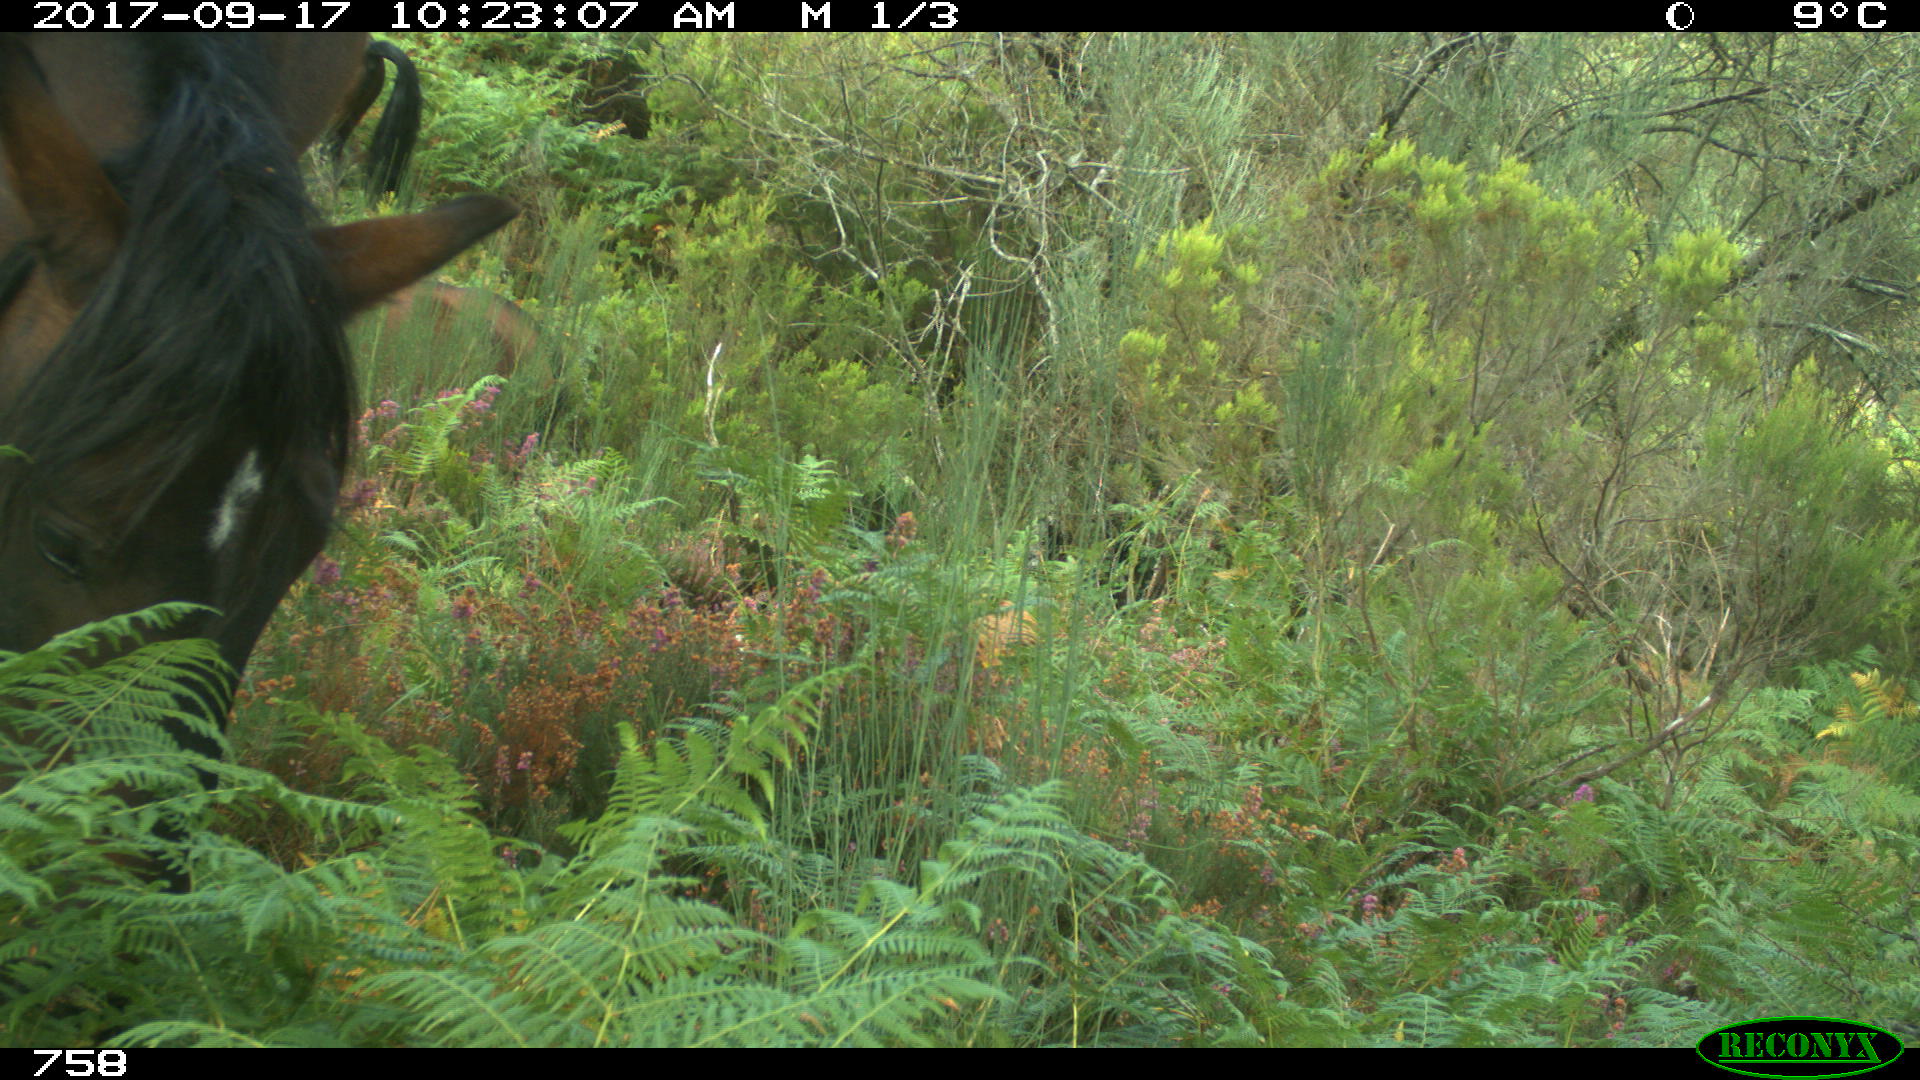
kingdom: Animalia
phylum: Chordata
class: Mammalia
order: Perissodactyla
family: Equidae
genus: Equus
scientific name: Equus caballus
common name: Horse
